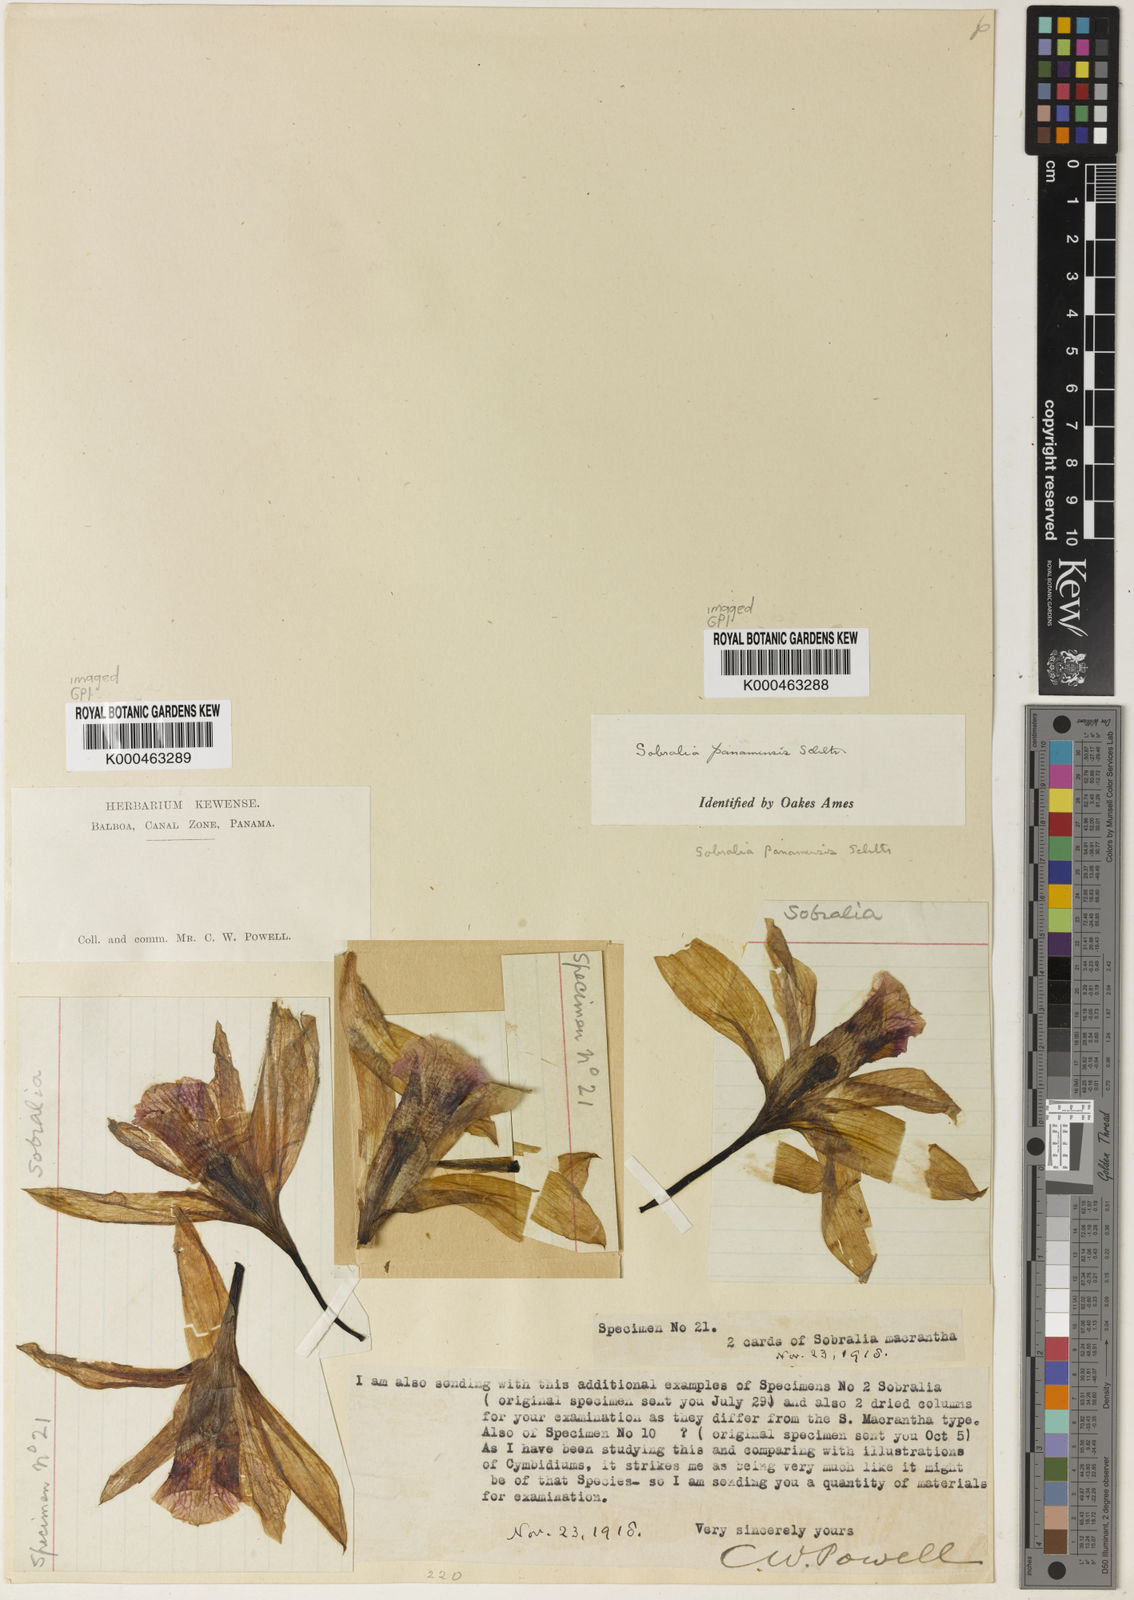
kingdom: Plantae
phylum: Tracheophyta
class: Liliopsida
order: Asparagales
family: Orchidaceae
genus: Sobralia
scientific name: Sobralia decora
